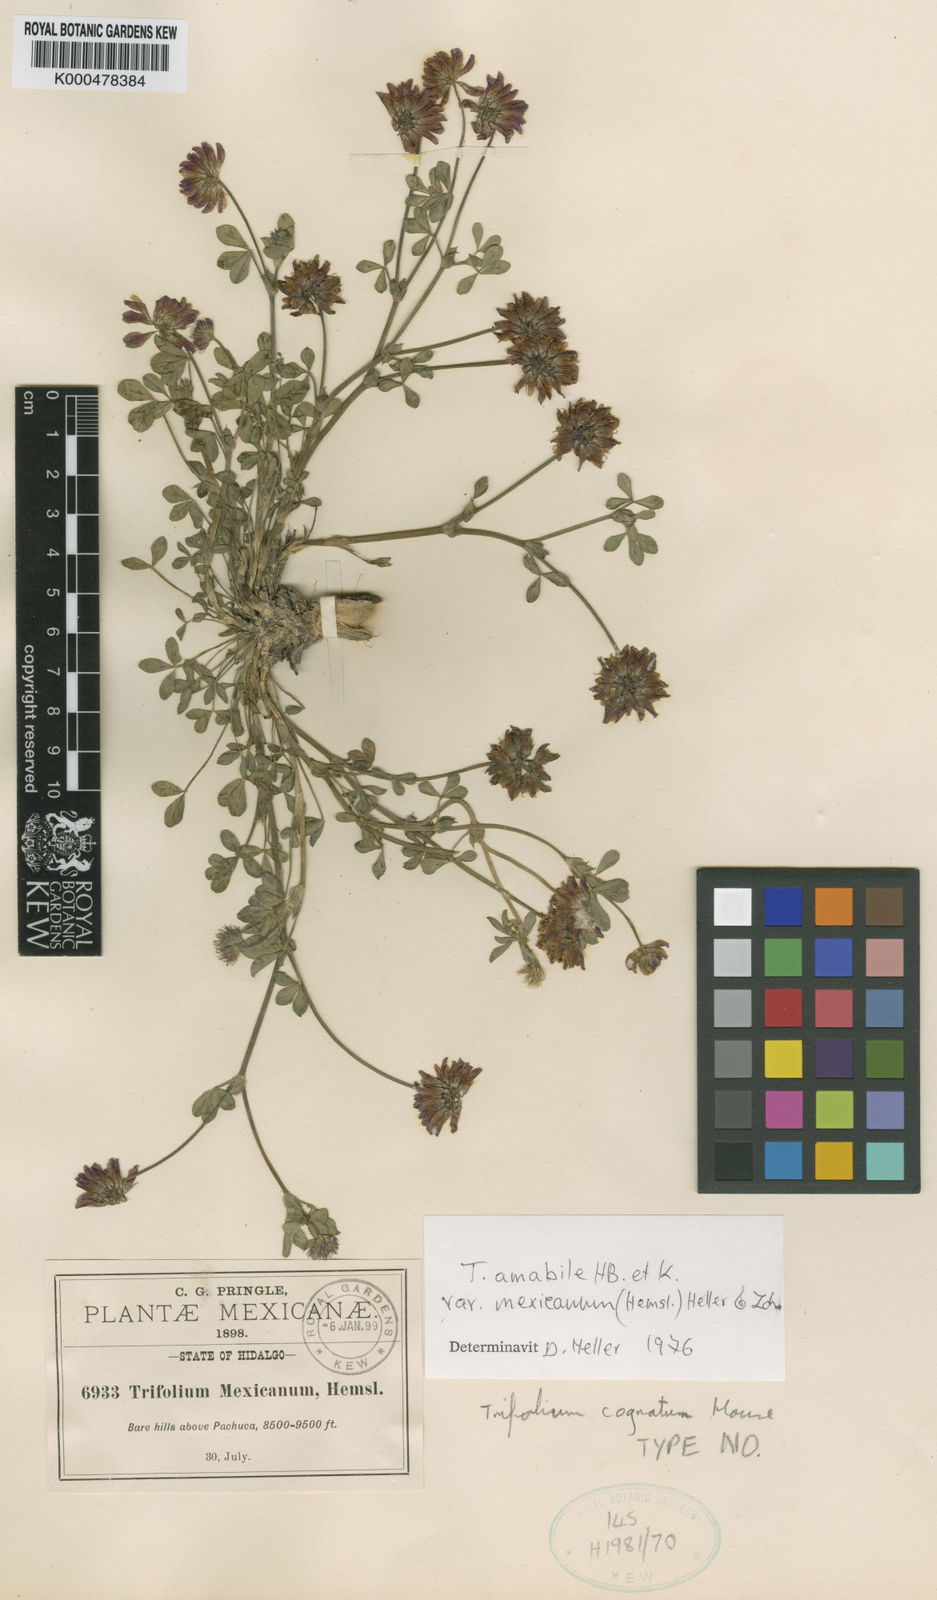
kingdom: Plantae
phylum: Tracheophyta
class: Magnoliopsida
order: Fabales
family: Fabaceae
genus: Trifolium
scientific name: Trifolium amabile
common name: Aztec clover
